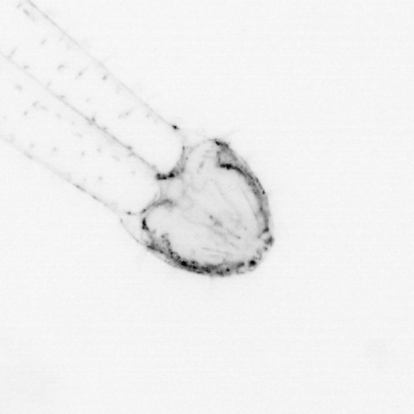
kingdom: Animalia
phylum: Chaetognatha
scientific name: Chaetognatha
